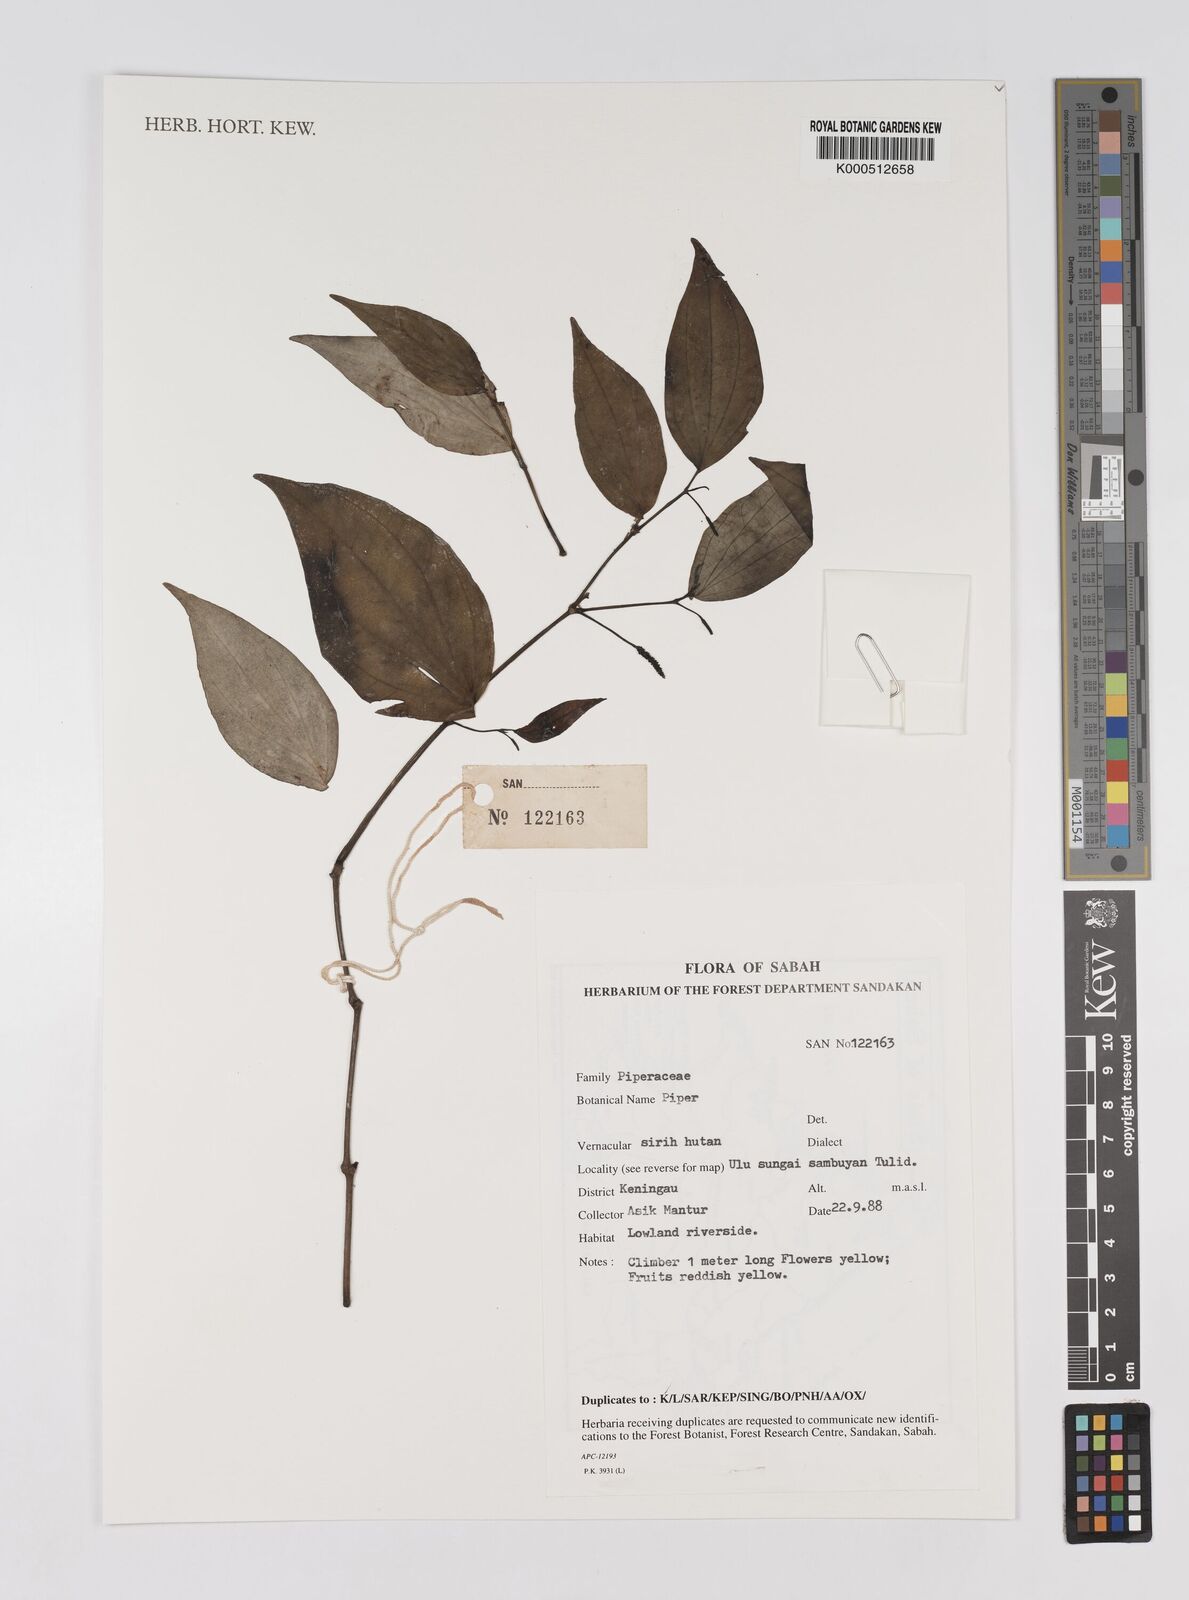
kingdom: Plantae
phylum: Tracheophyta
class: Magnoliopsida
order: Piperales
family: Piperaceae
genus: Piper
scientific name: Piper
